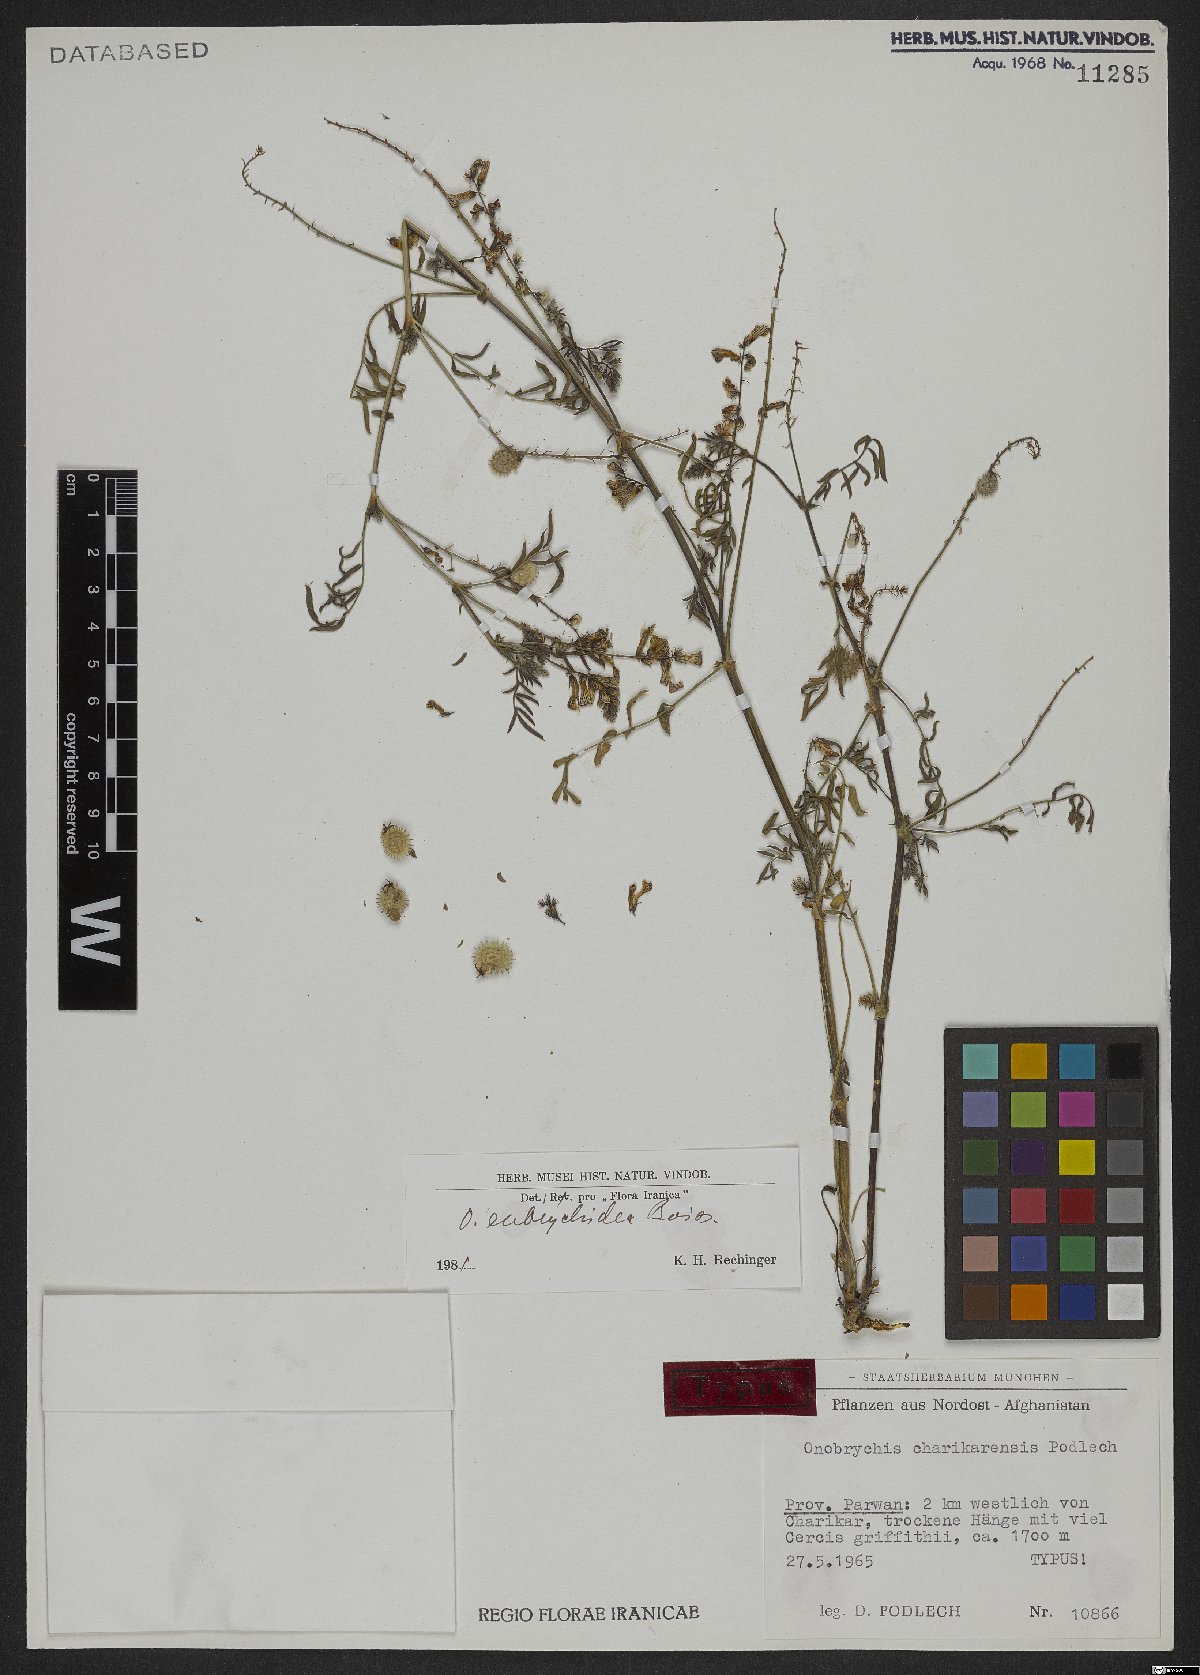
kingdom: Plantae
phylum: Tracheophyta
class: Magnoliopsida
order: Fabales
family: Fabaceae
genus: Onobrychis
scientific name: Onobrychis eubrychidea
